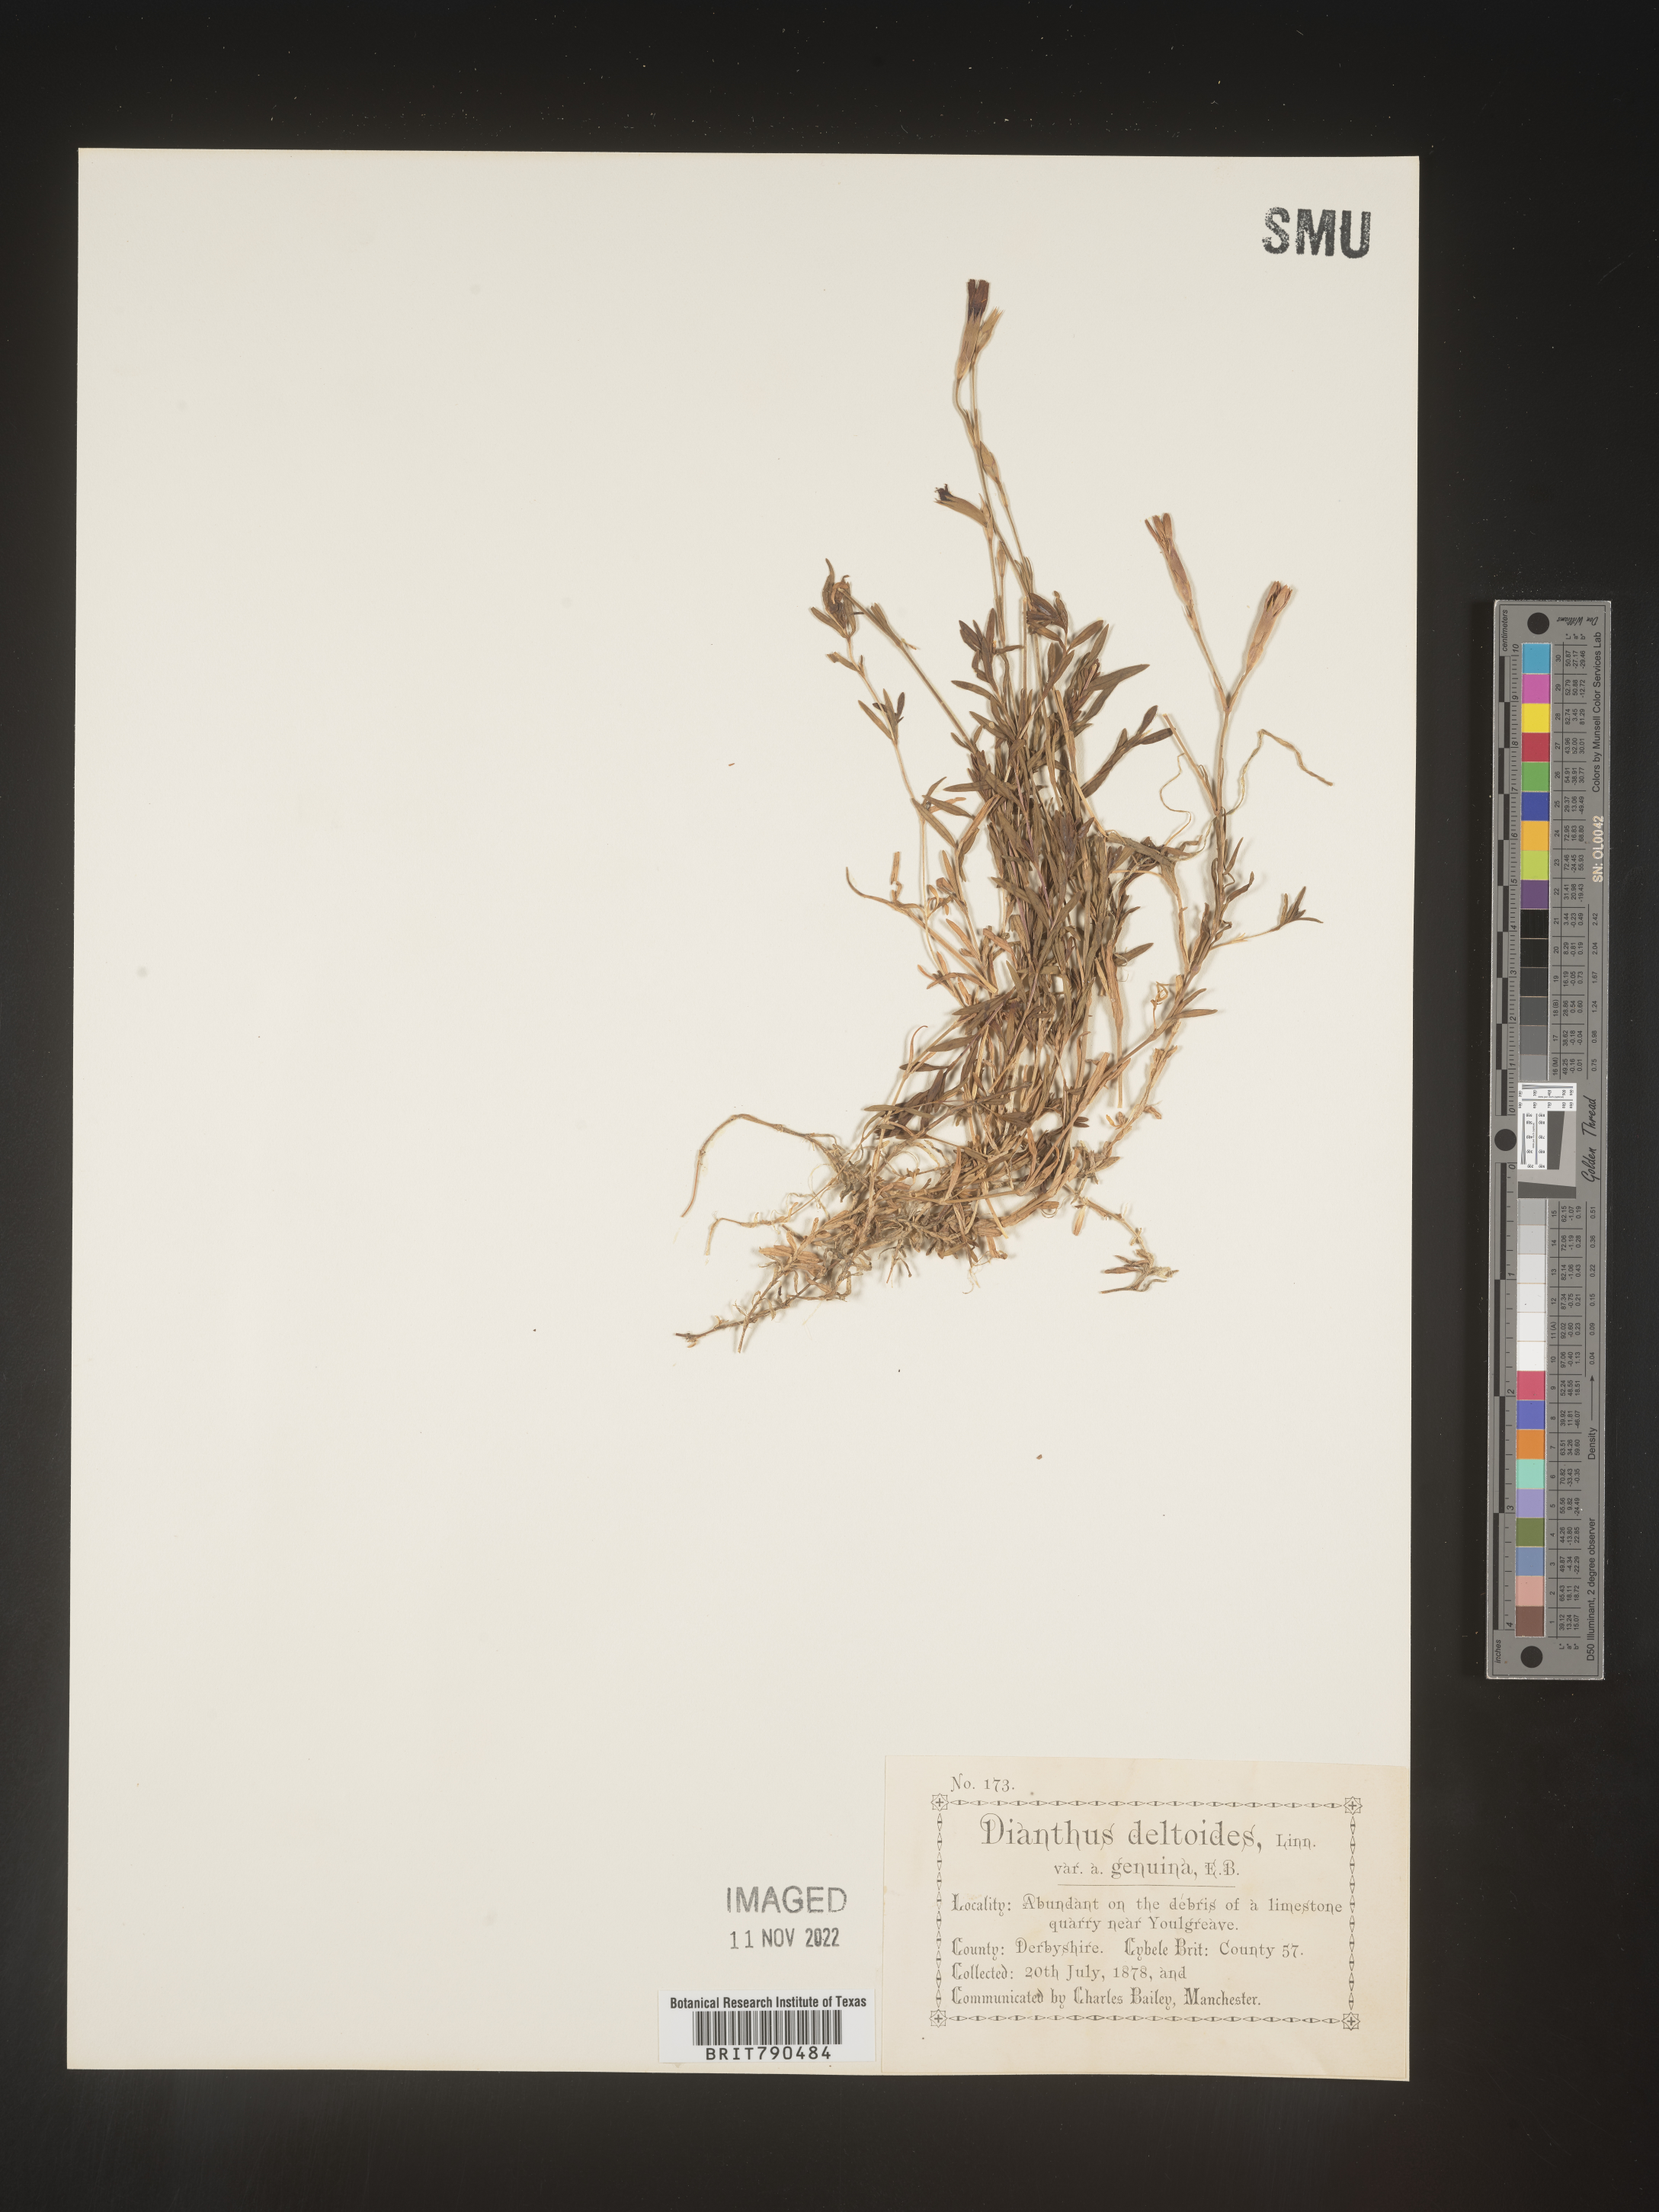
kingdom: Plantae
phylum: Tracheophyta
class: Magnoliopsida
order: Caryophyllales
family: Caryophyllaceae
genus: Dianthus
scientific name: Dianthus deltoides
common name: Maiden pink
